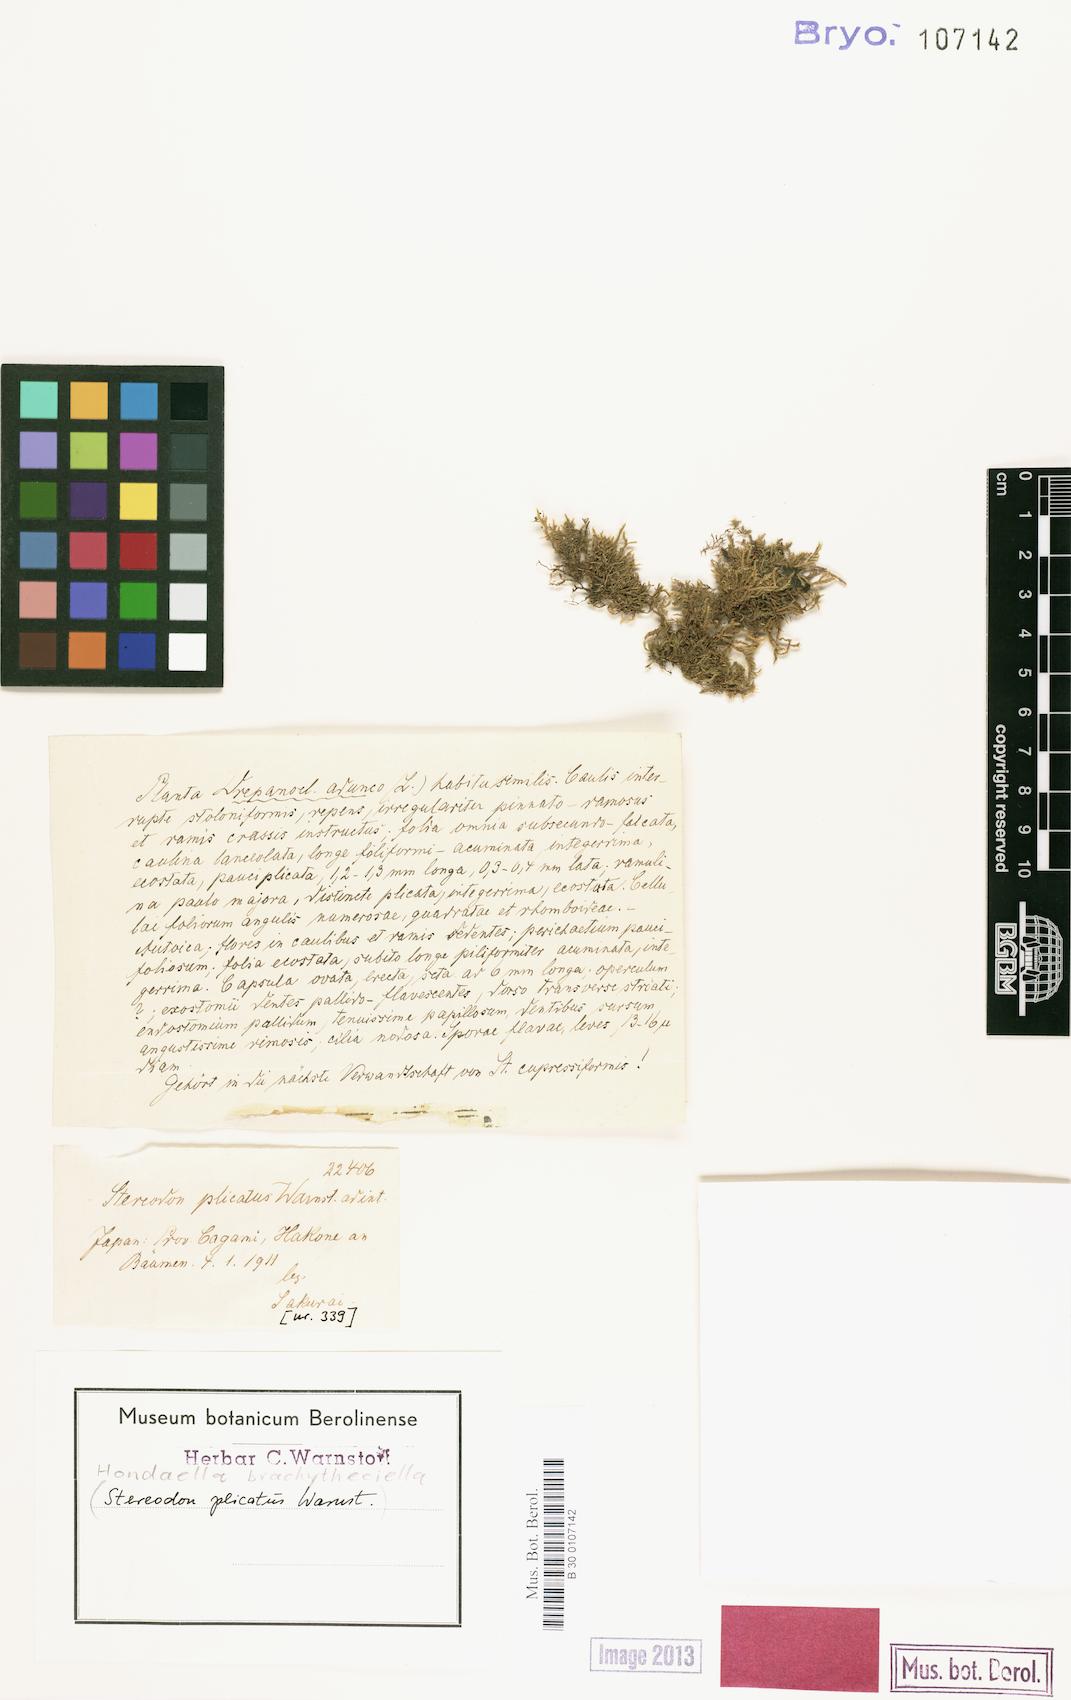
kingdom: Plantae
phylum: Bryophyta
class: Bryopsida
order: Hypnales
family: Taxiphyllaceae
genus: Hondaella
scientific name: Hondaella caperata
